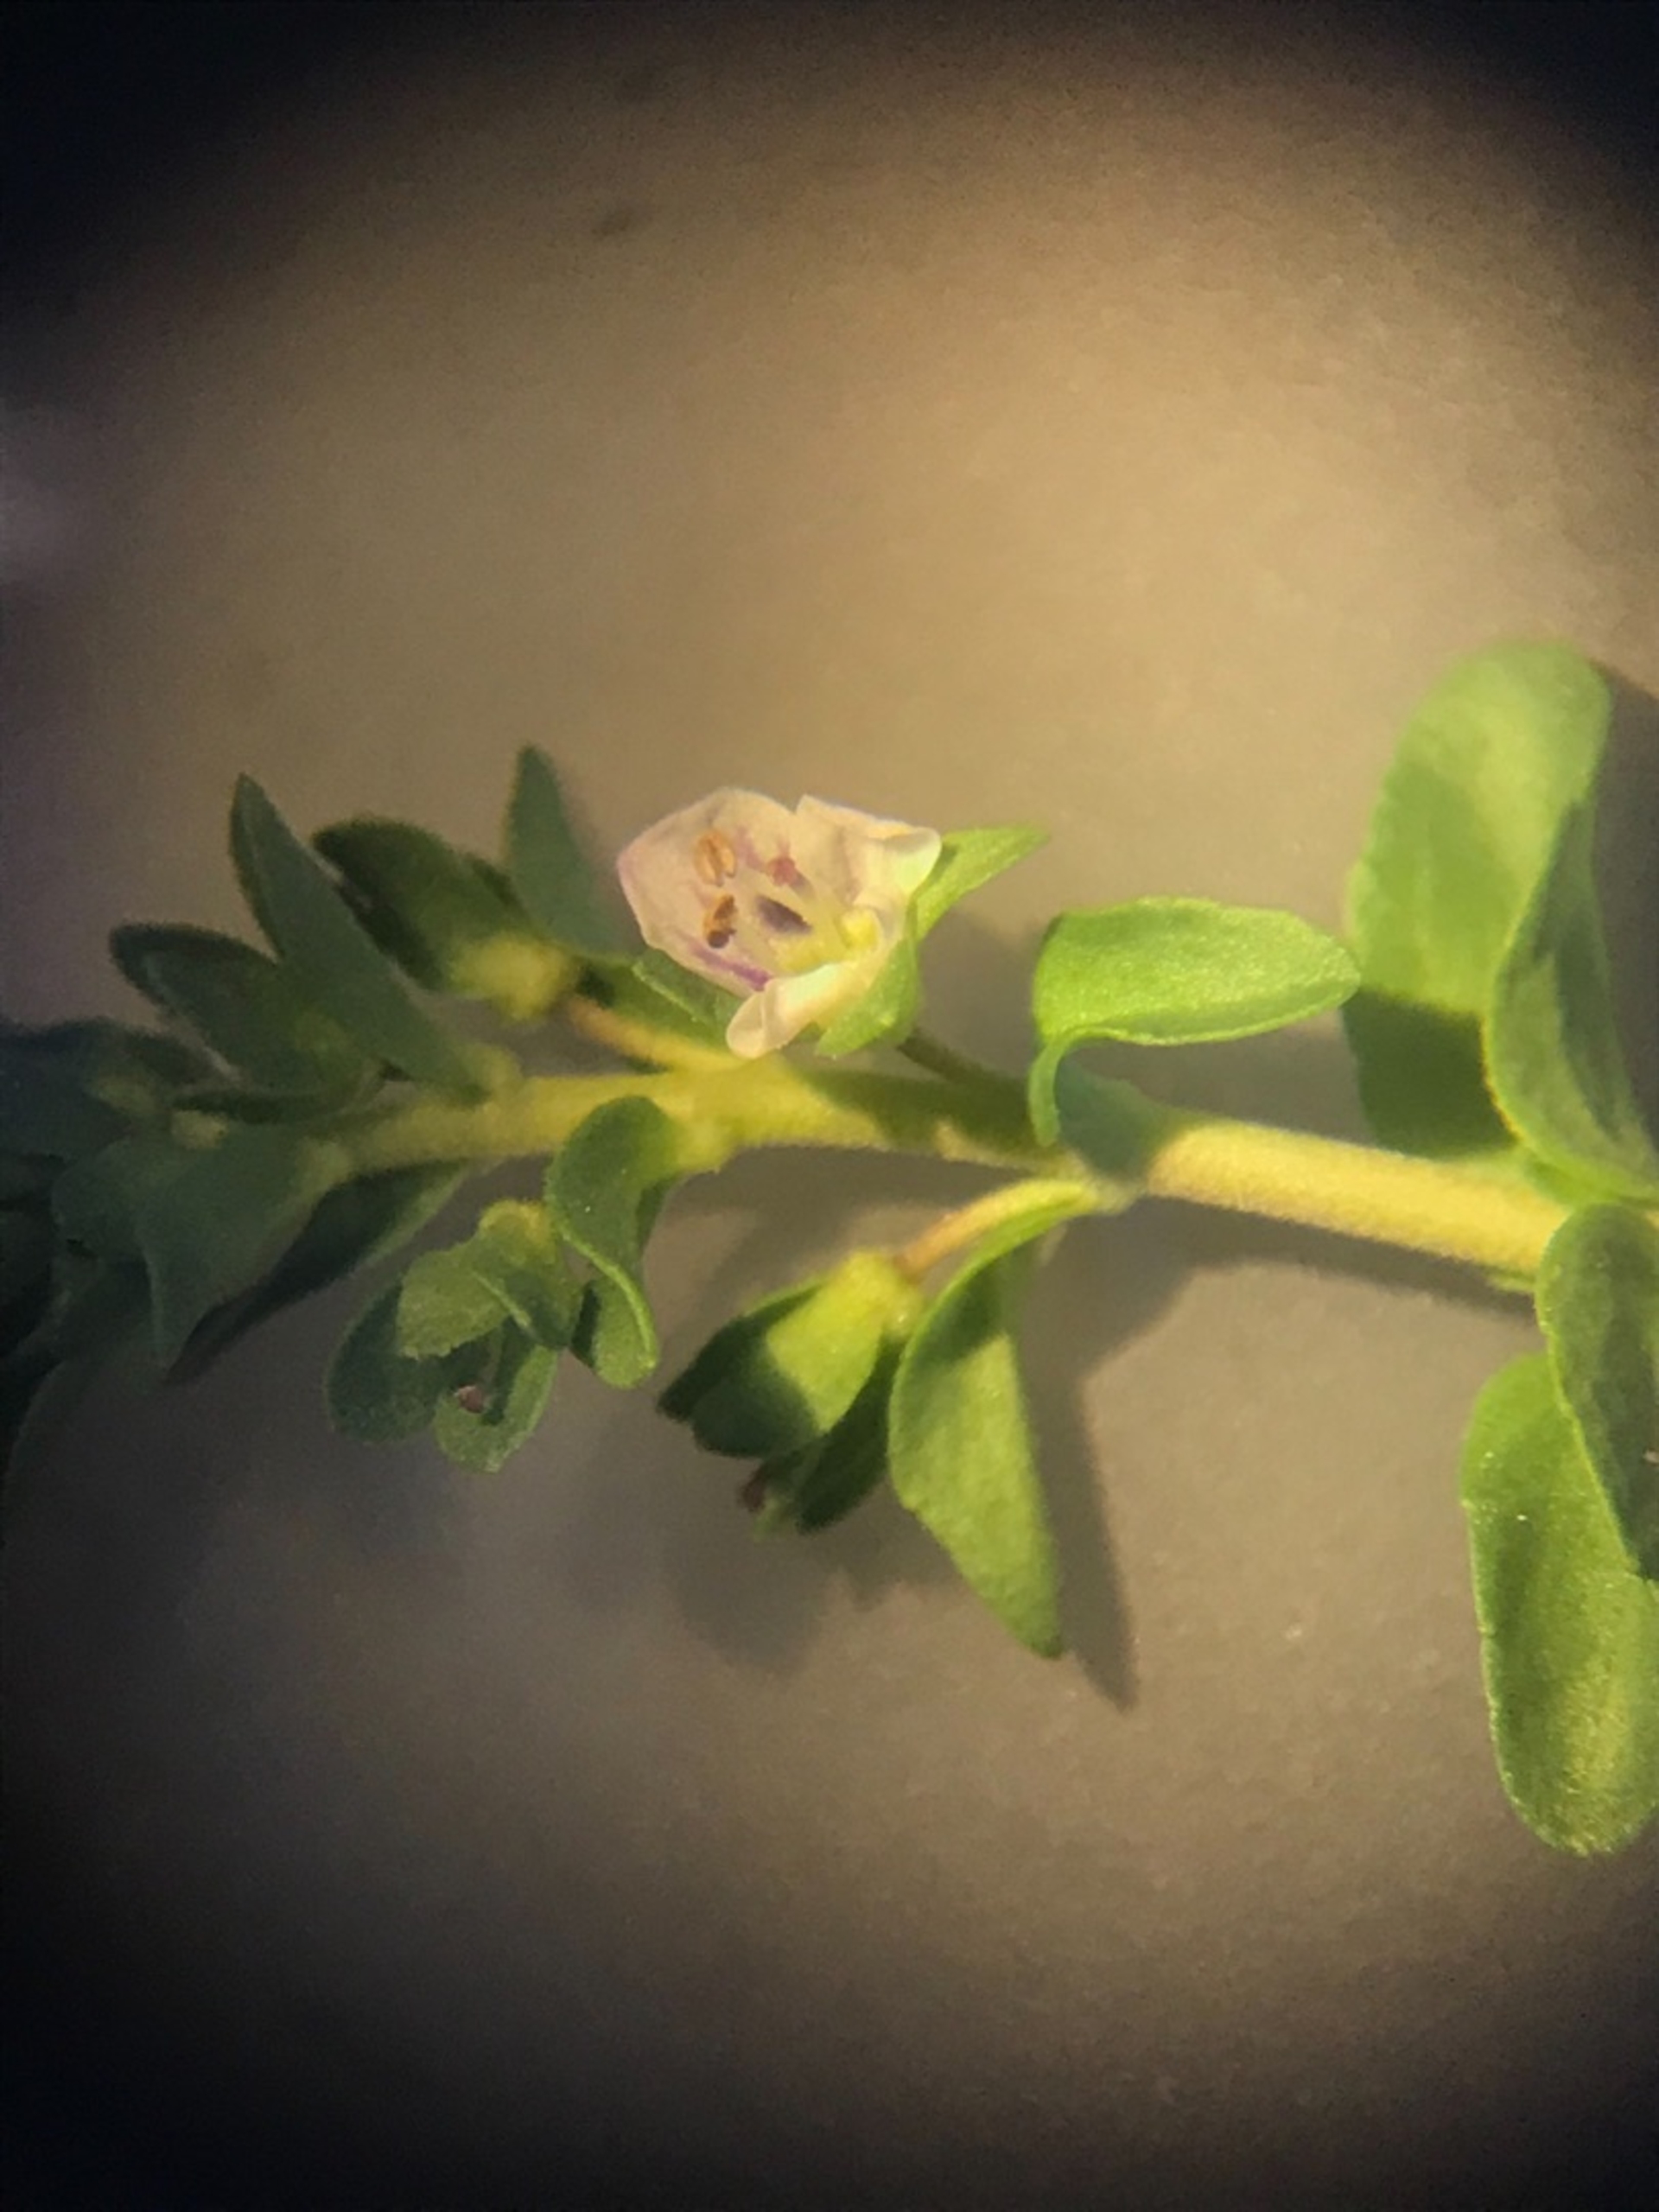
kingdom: Plantae
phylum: Tracheophyta
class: Magnoliopsida
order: Lamiales
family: Plantaginaceae
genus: Veronica
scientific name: Veronica serpyllifolia
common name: Glat ærenpris
